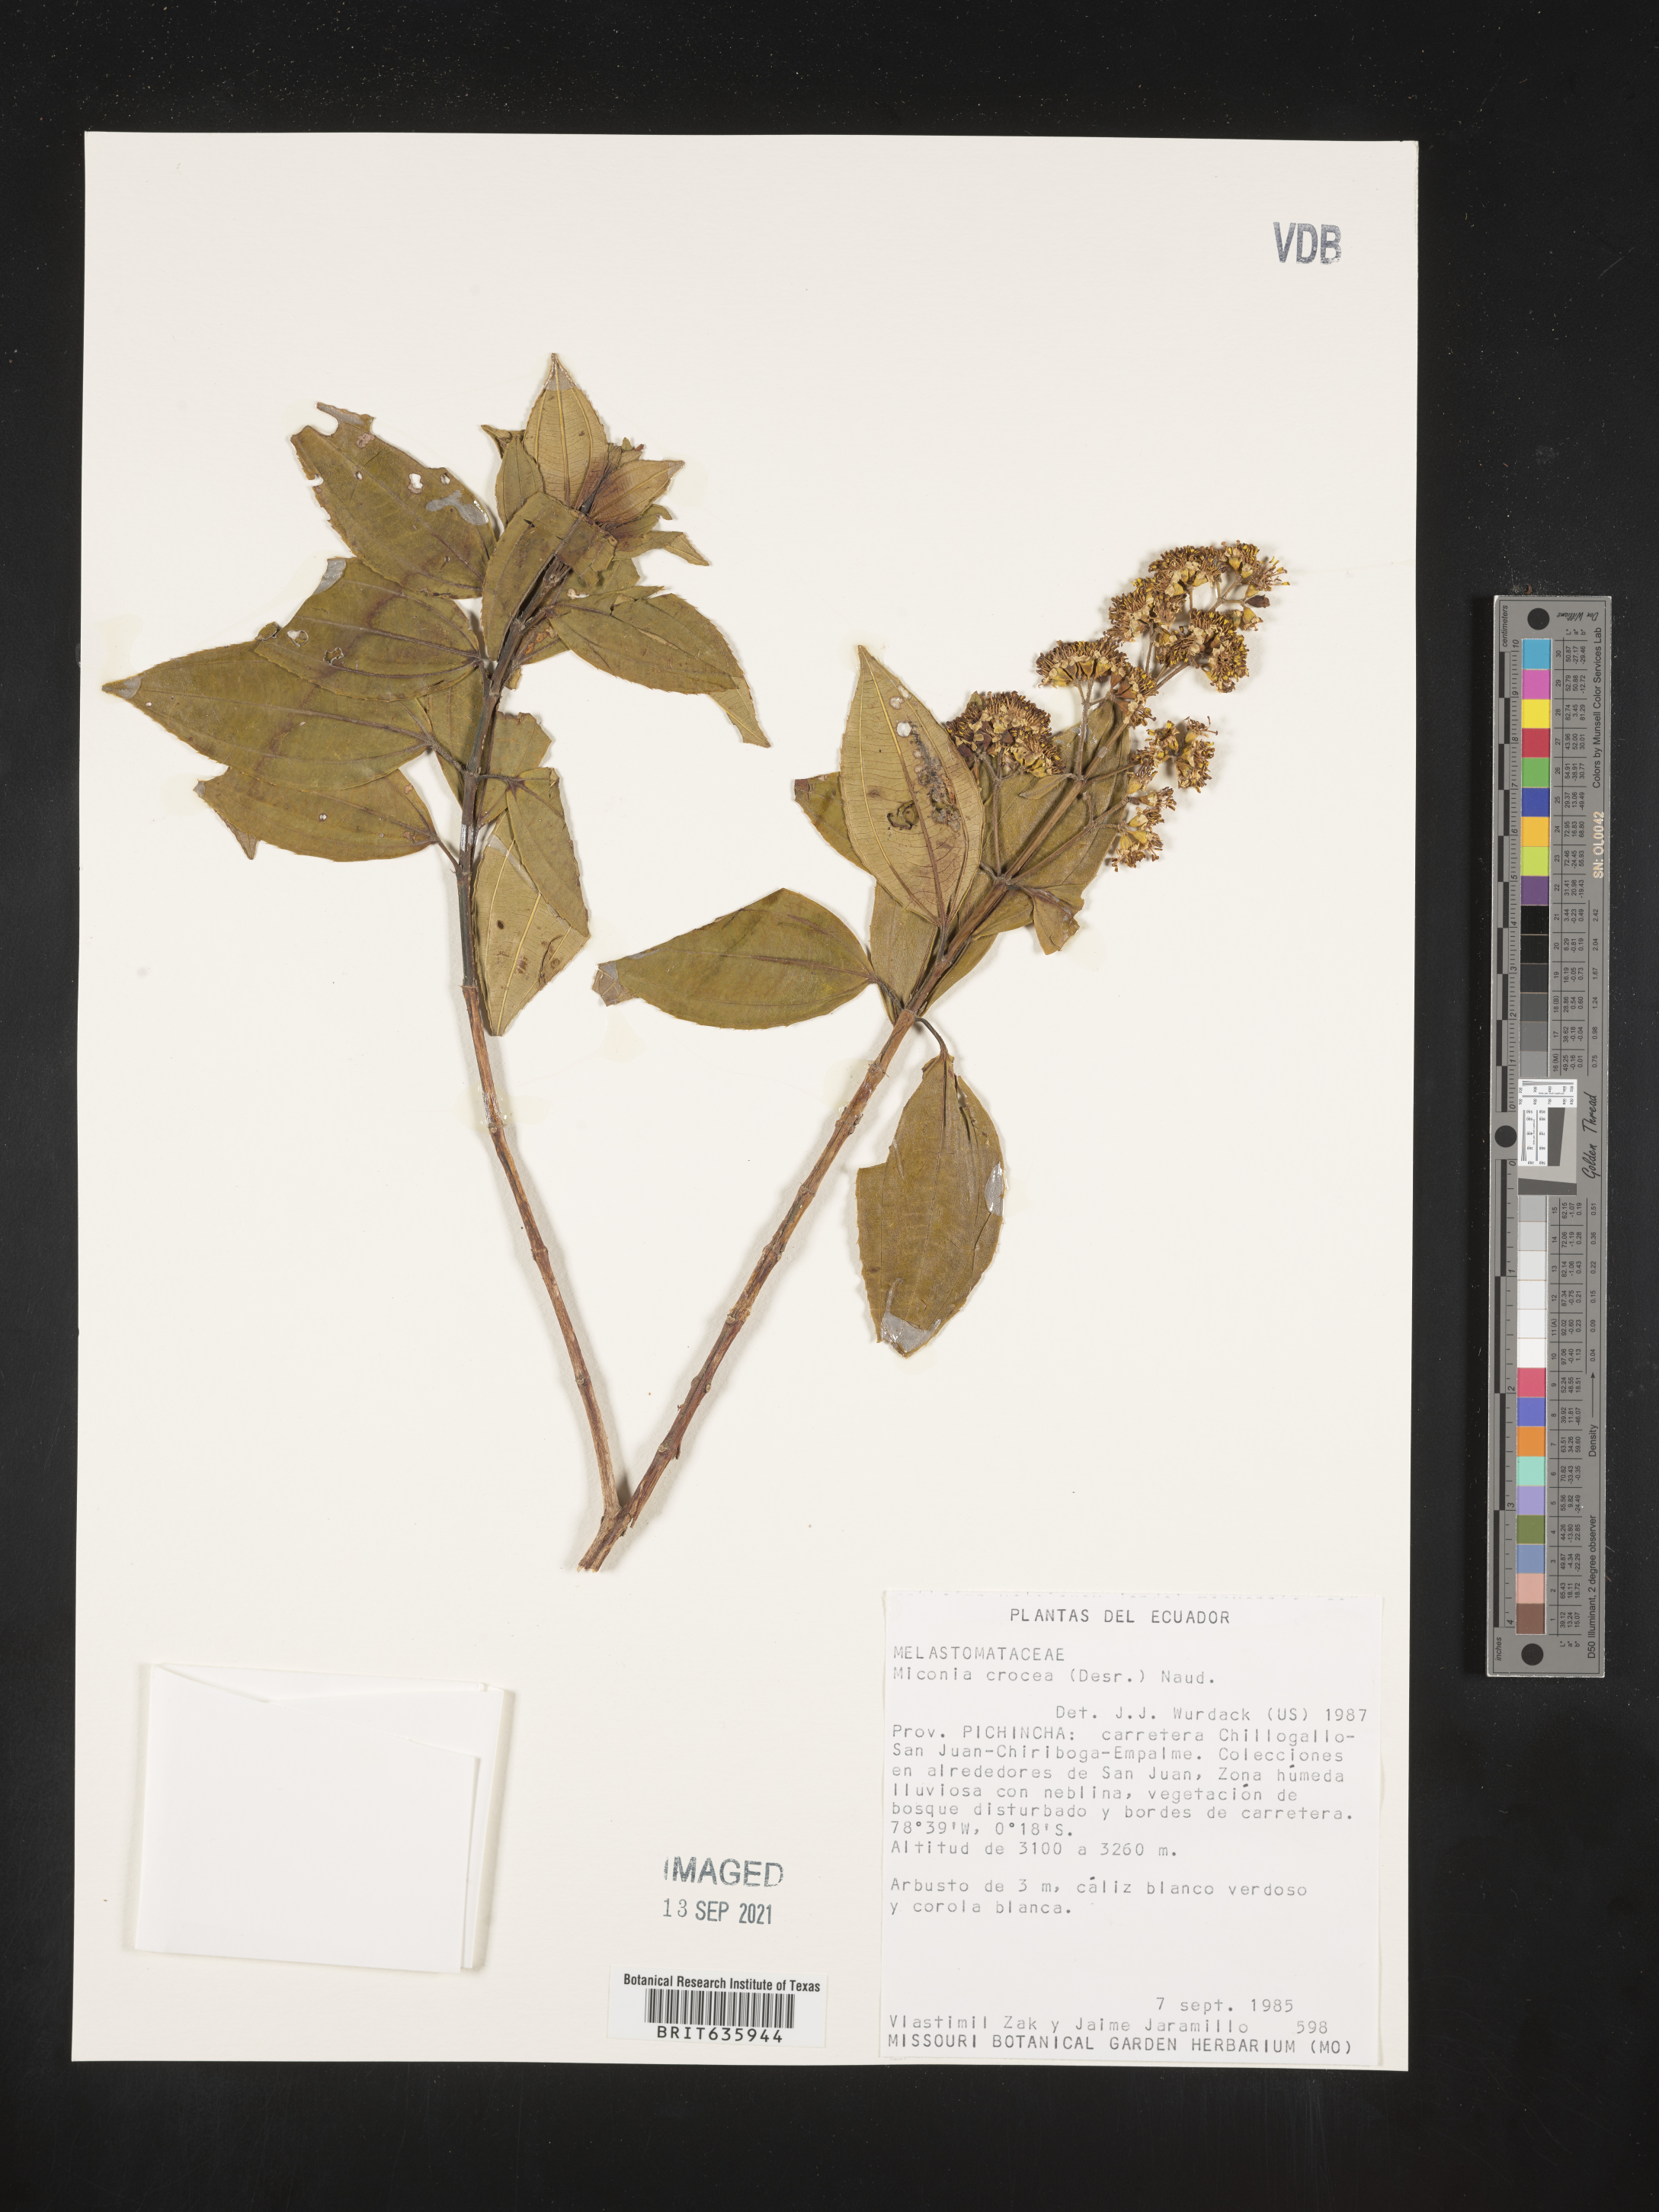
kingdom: Plantae
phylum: Tracheophyta
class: Magnoliopsida
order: Myrtales
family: Melastomataceae
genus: Miconia
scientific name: Miconia
